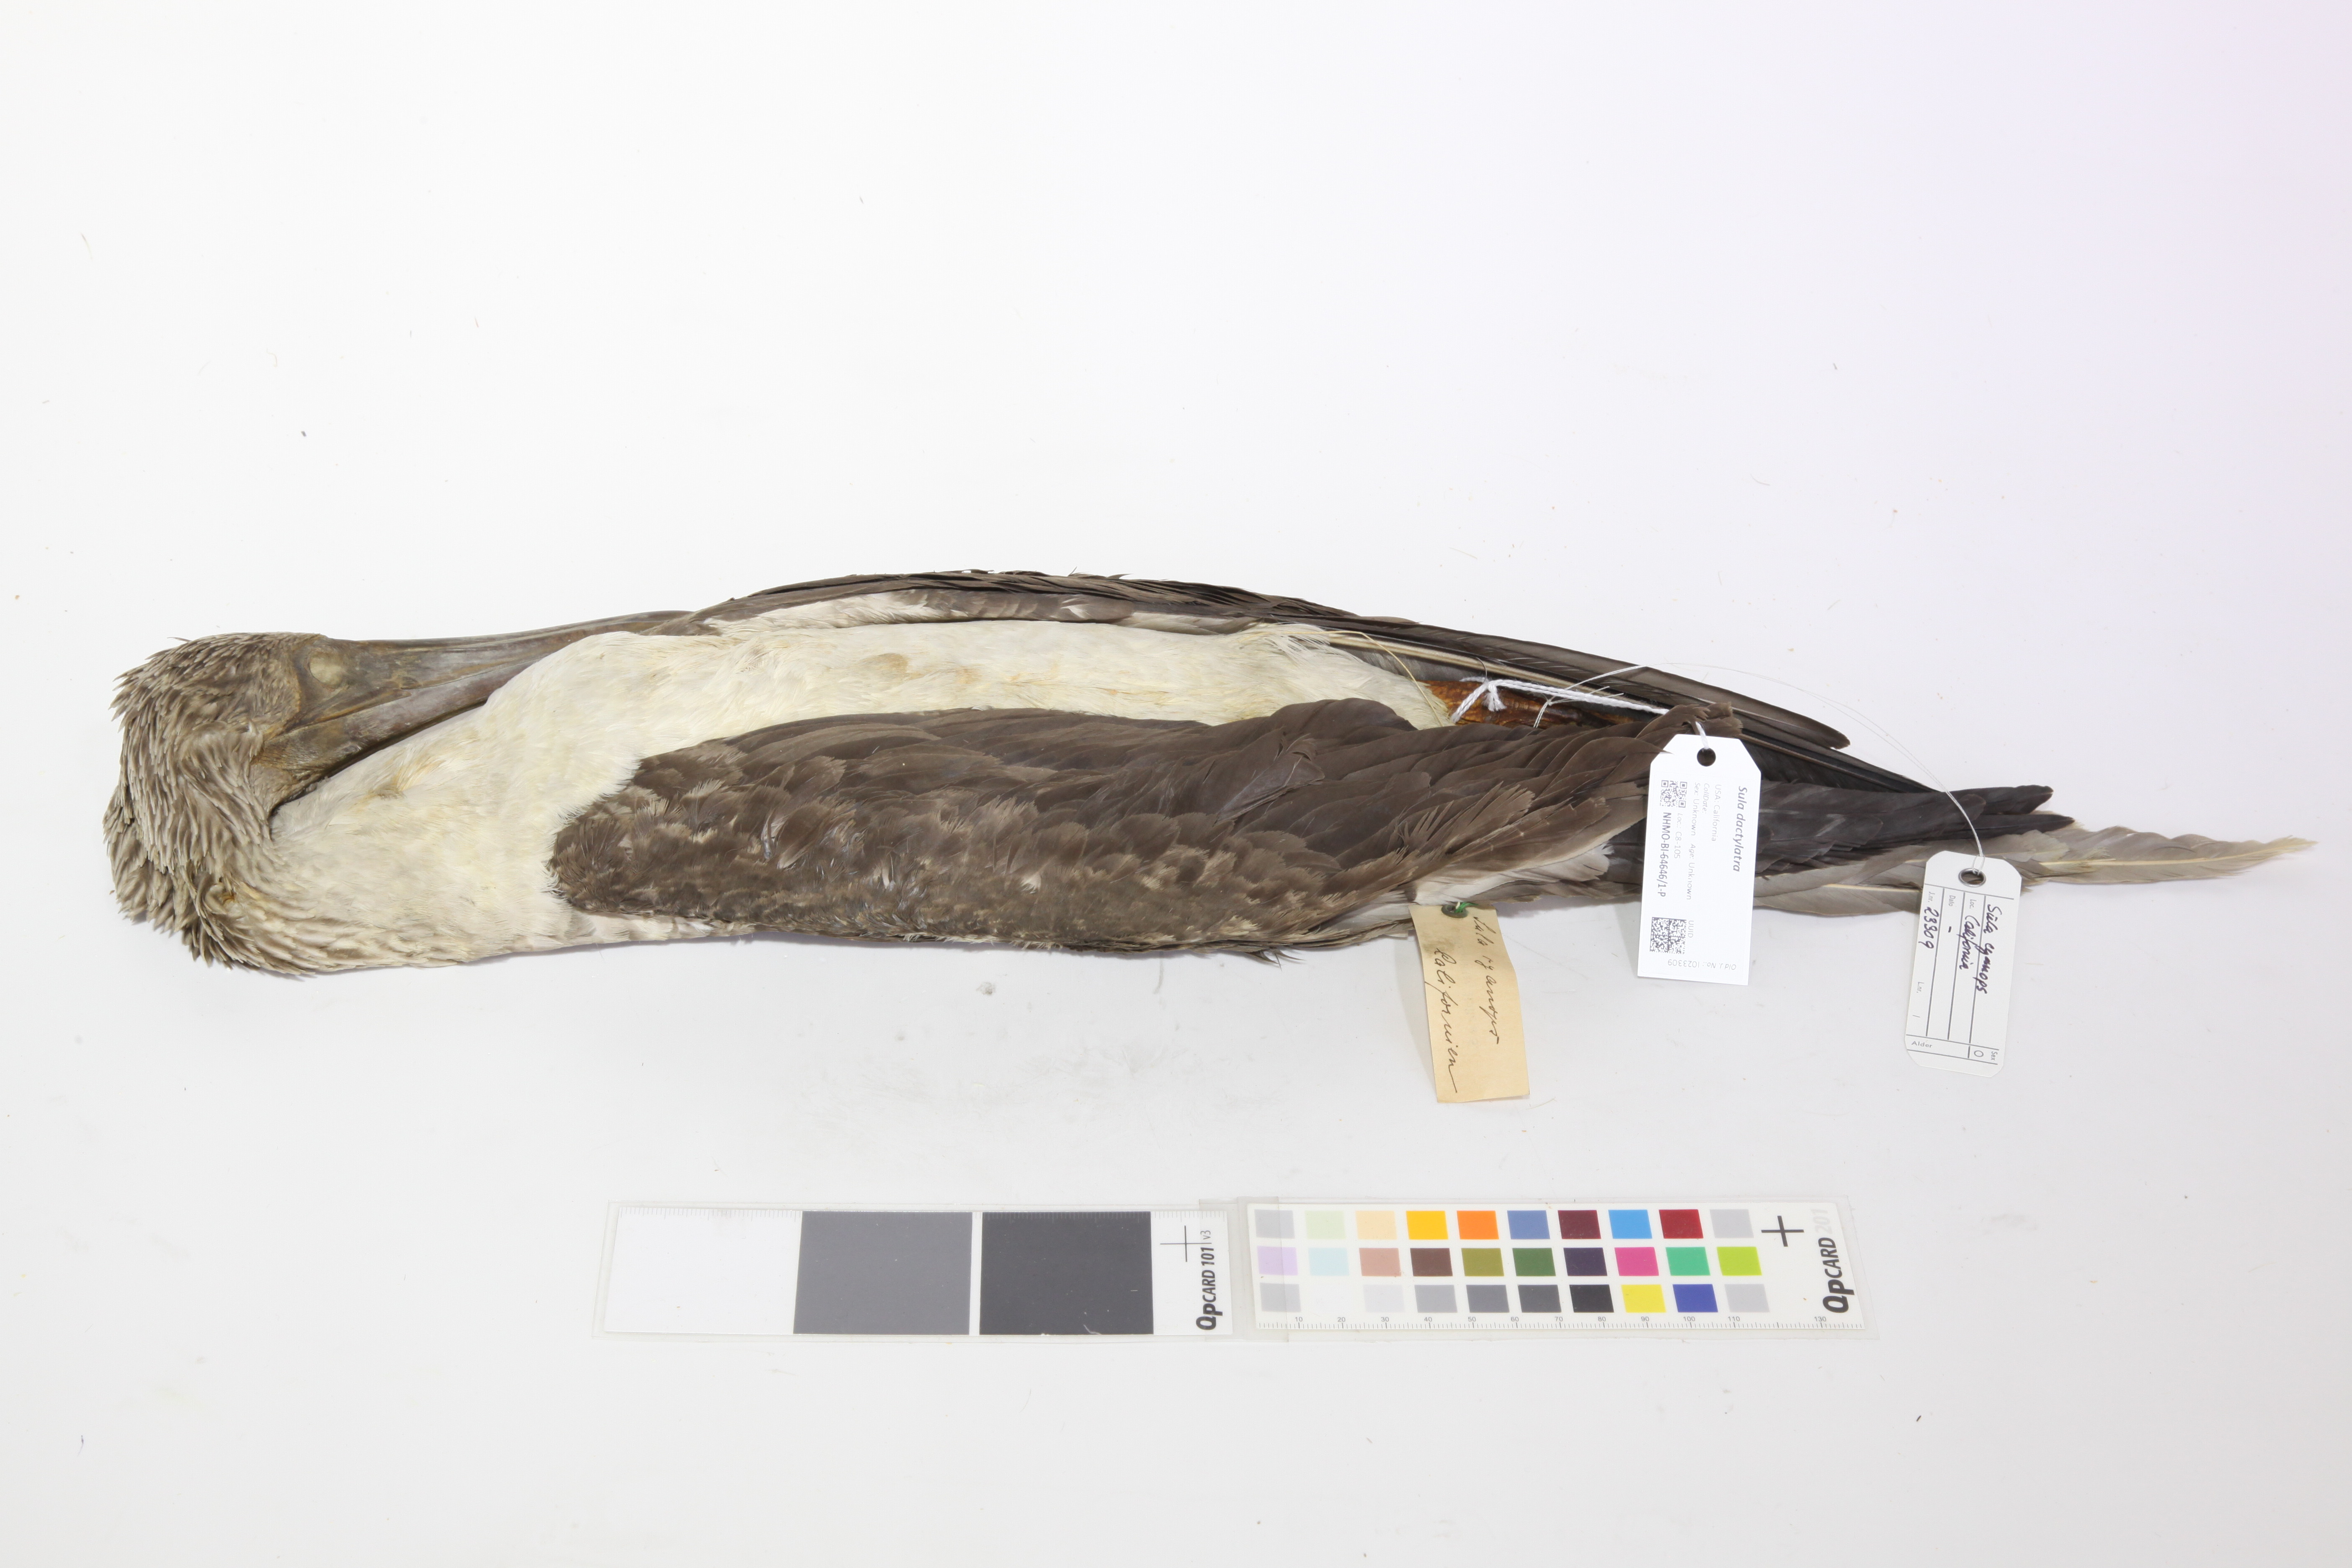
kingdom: Animalia
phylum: Chordata
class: Aves
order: Suliformes
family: Sulidae
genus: Sula
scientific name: Sula dactylatra
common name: Masked booby
